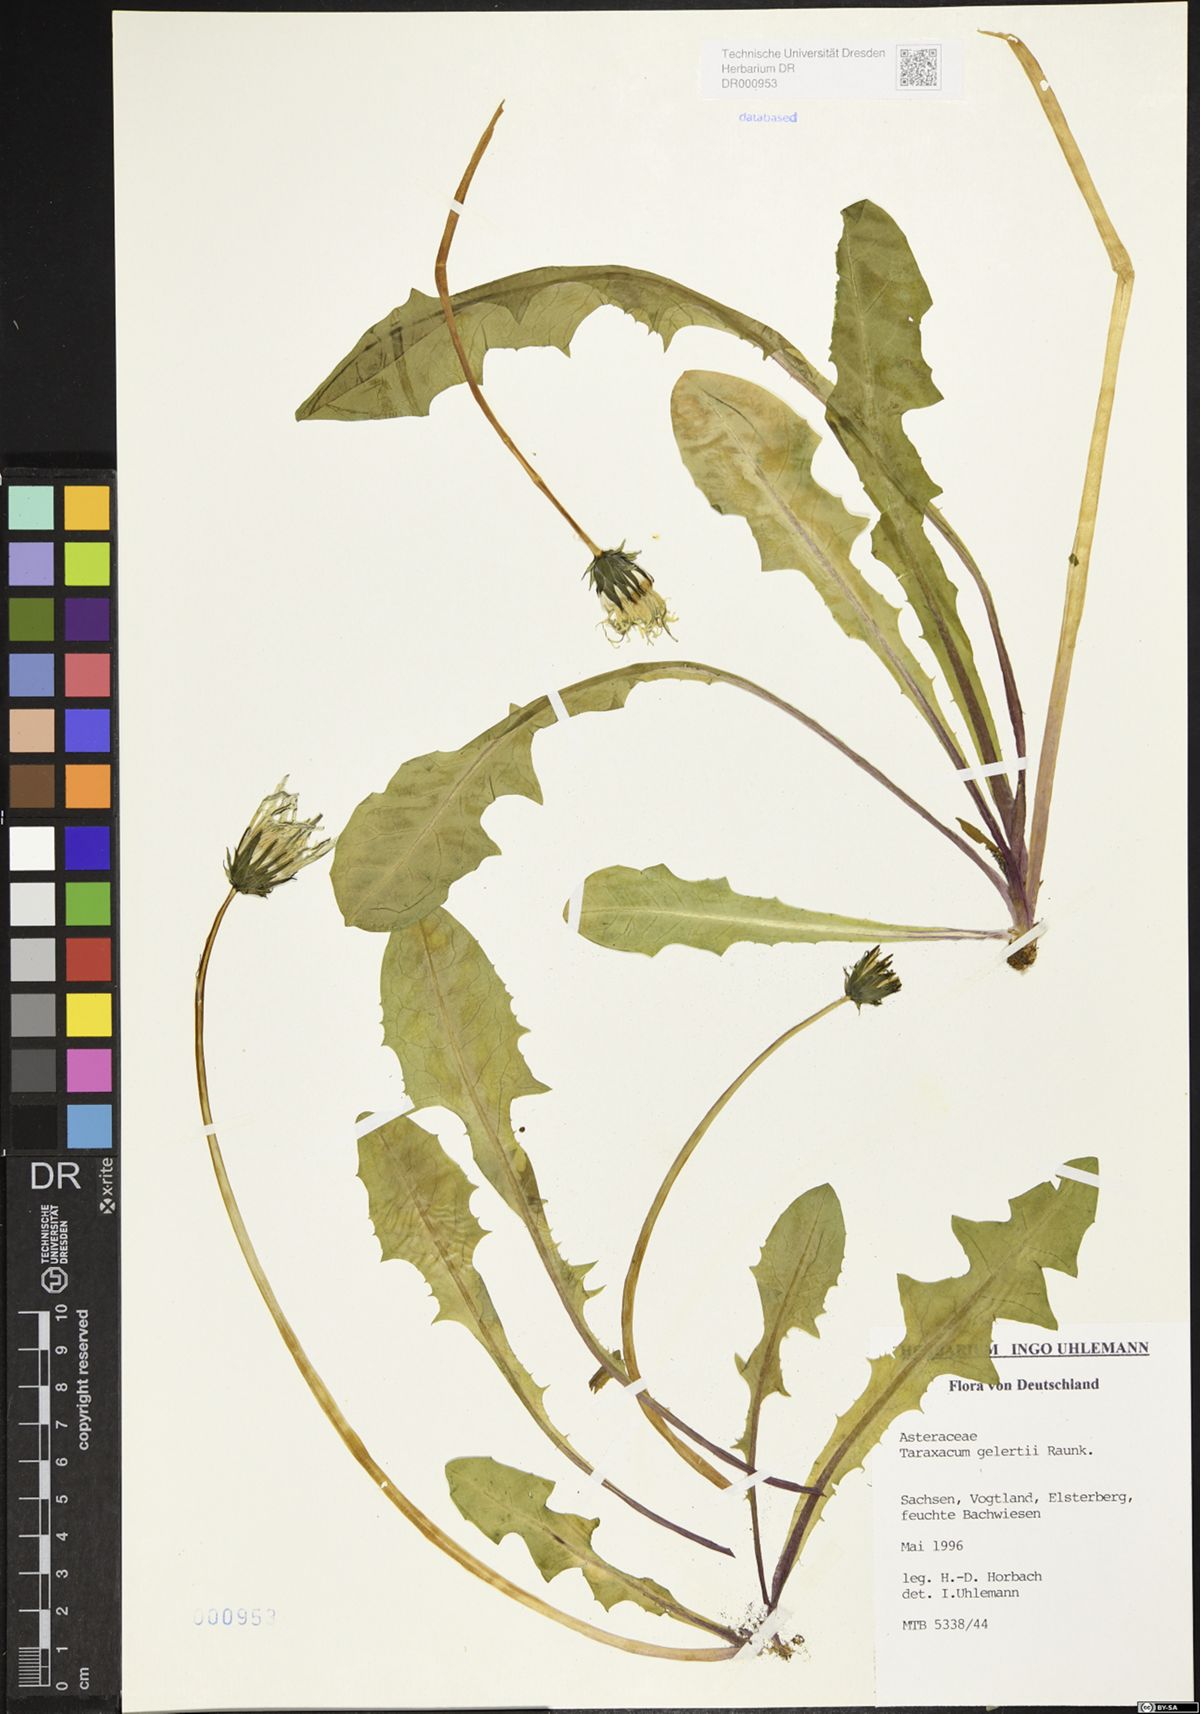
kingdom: Plantae
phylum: Tracheophyta
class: Magnoliopsida
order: Asterales
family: Asteraceae
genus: Taraxacum
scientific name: Taraxacum gelertii
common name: Gelert's dandelion
